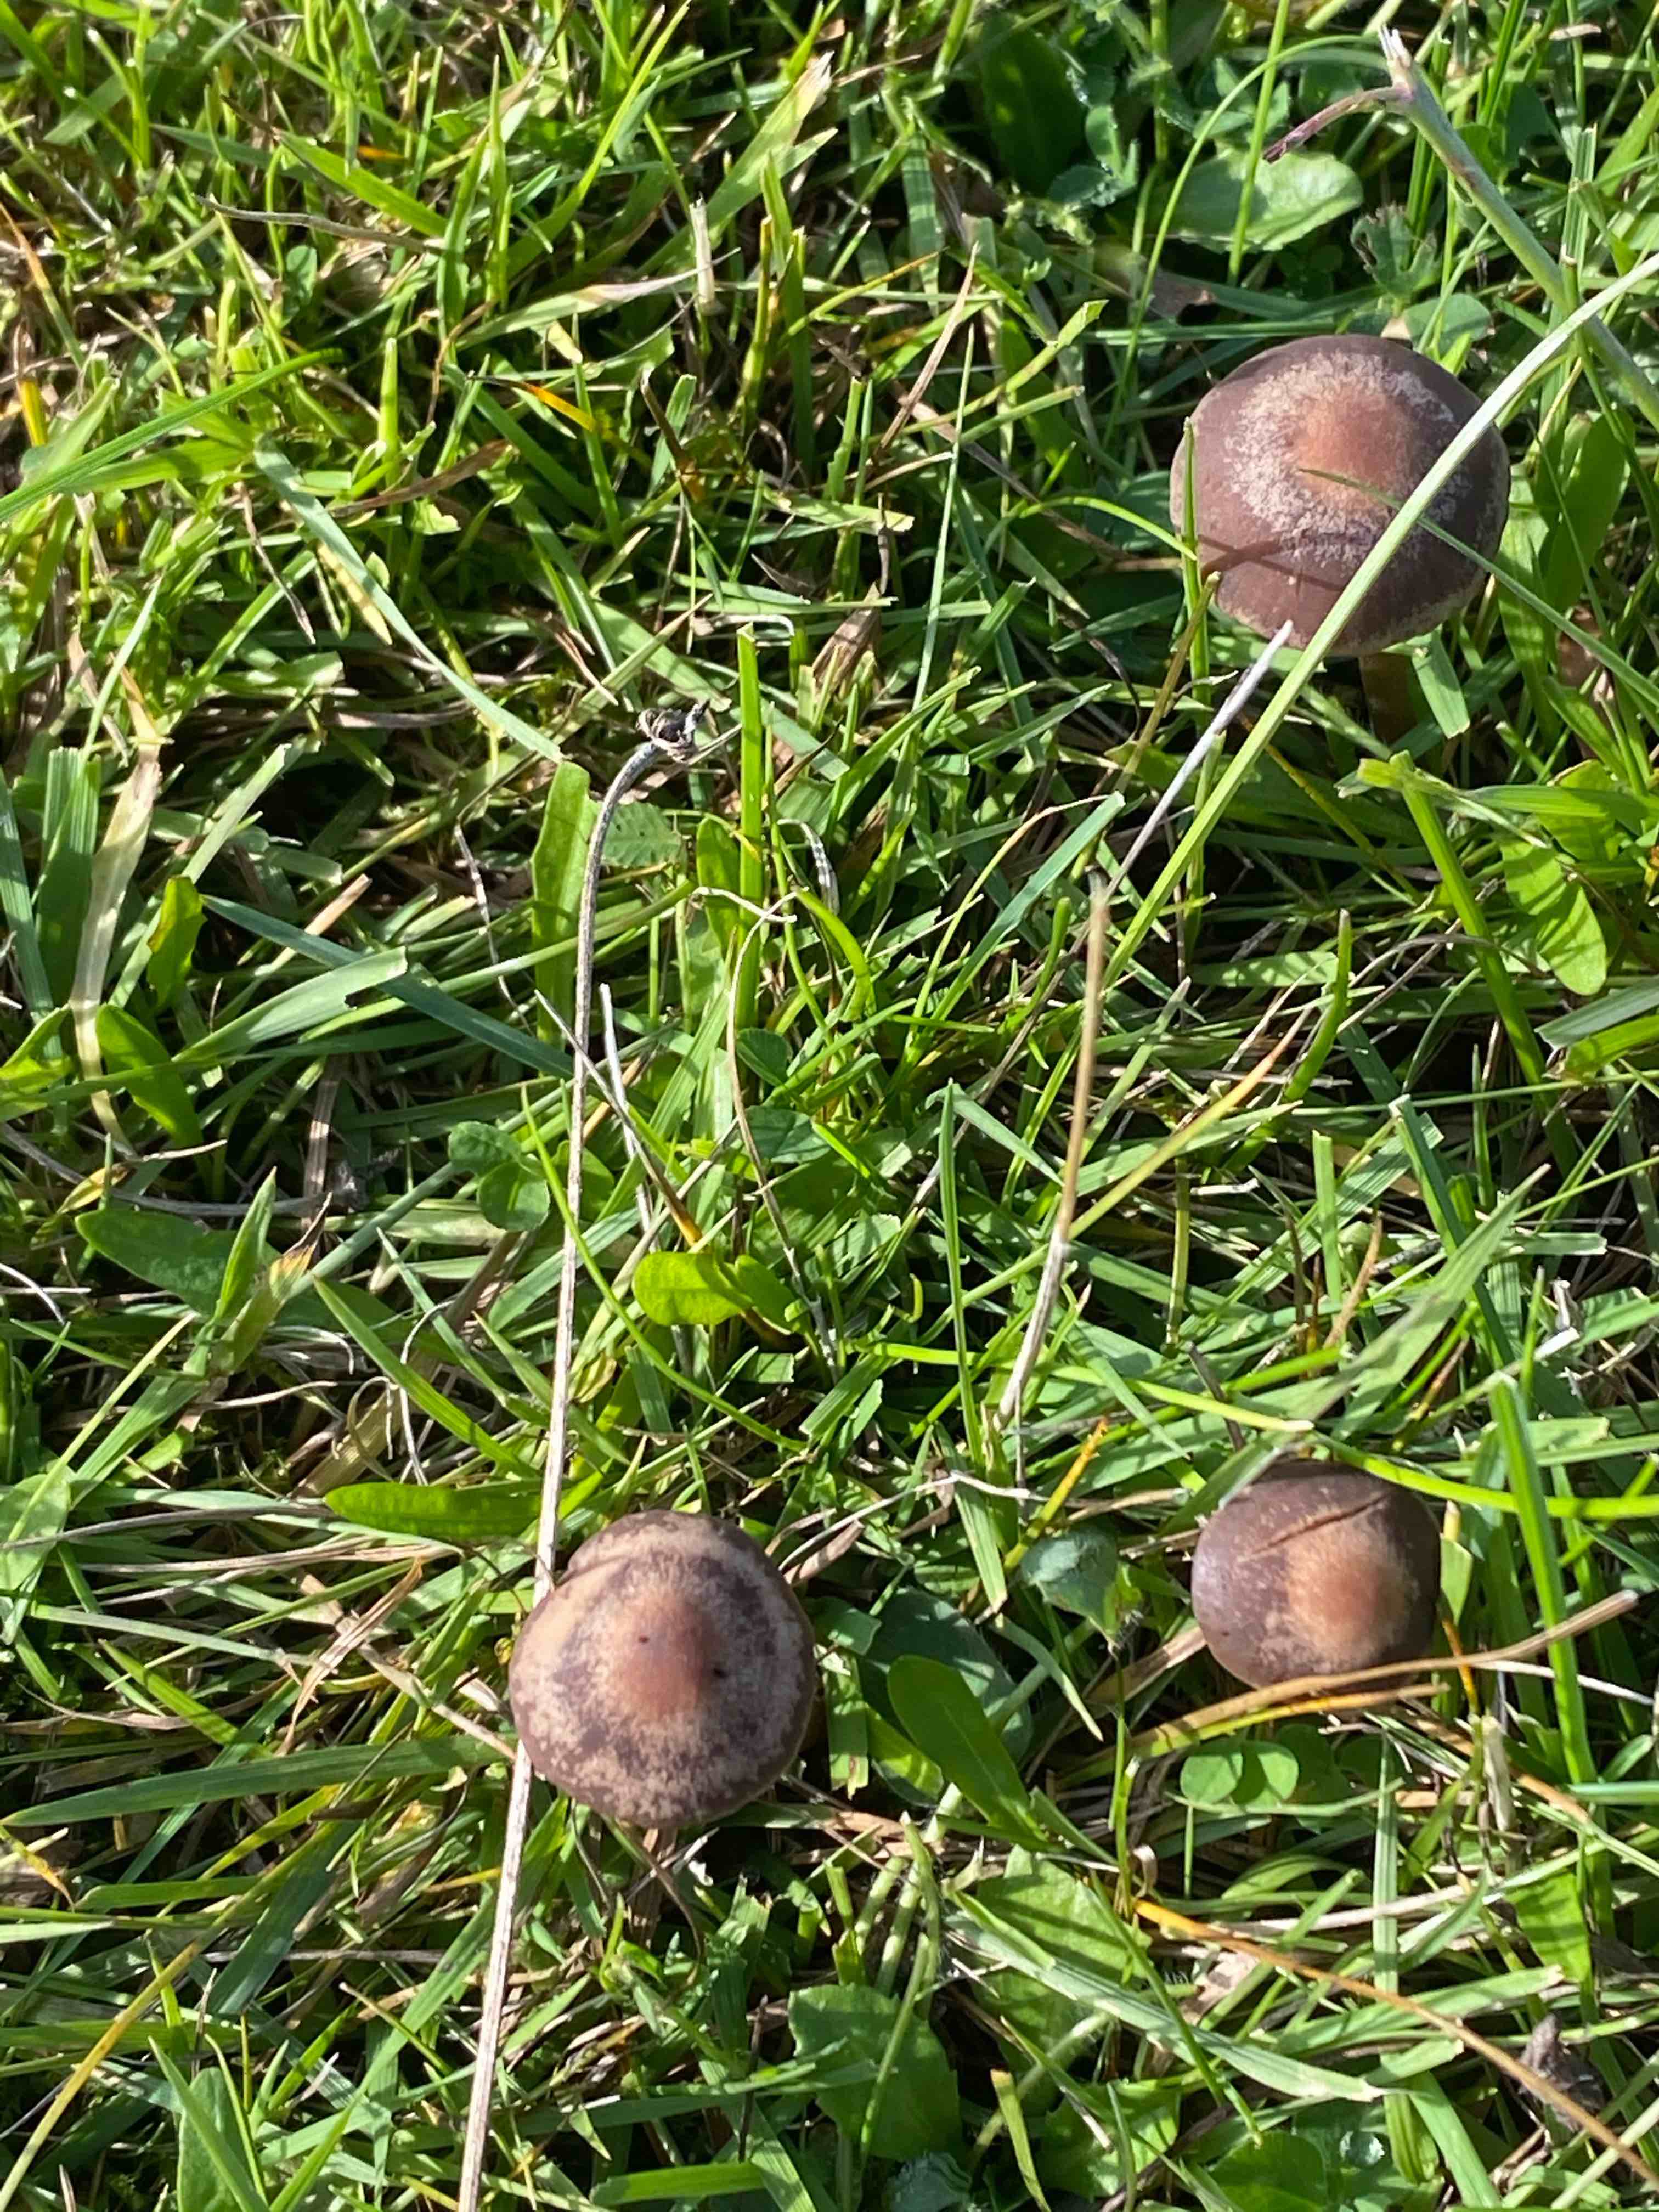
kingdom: Fungi
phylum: Basidiomycota
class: Agaricomycetes
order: Agaricales
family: Bolbitiaceae
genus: Panaeolus
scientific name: Panaeolus papilionaceus
